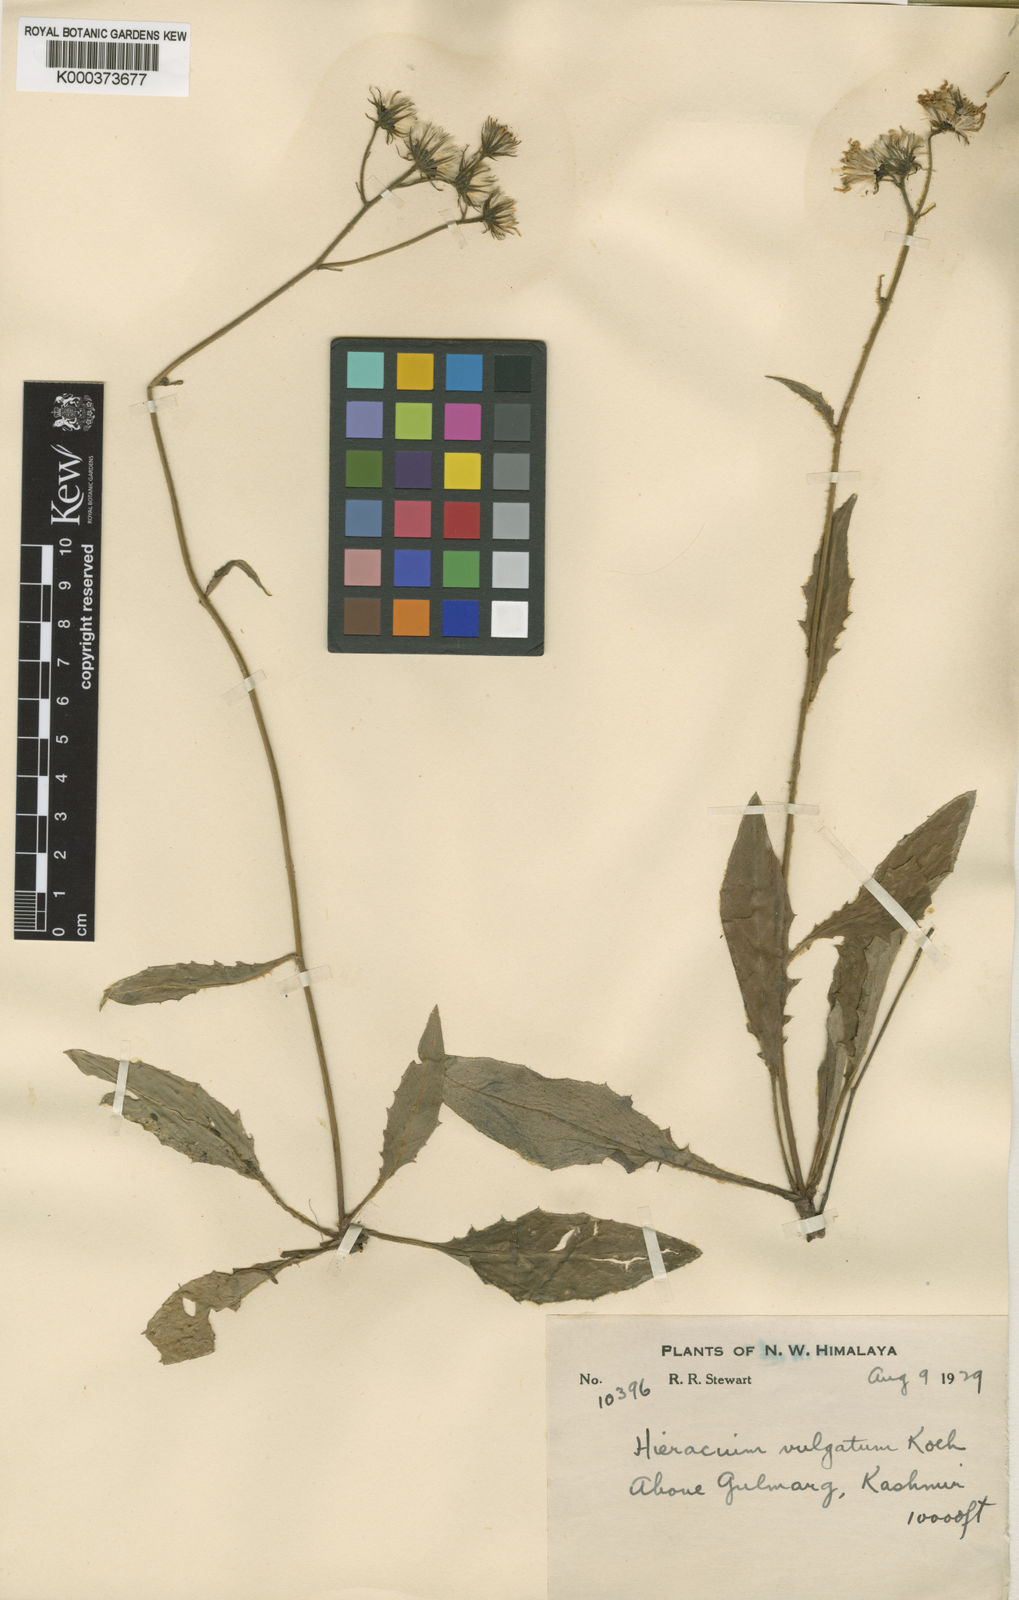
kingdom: Plantae
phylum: Tracheophyta
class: Magnoliopsida
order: Asterales
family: Asteraceae
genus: Hieracium
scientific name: Hieracium lachenalii
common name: Common hawkweed
